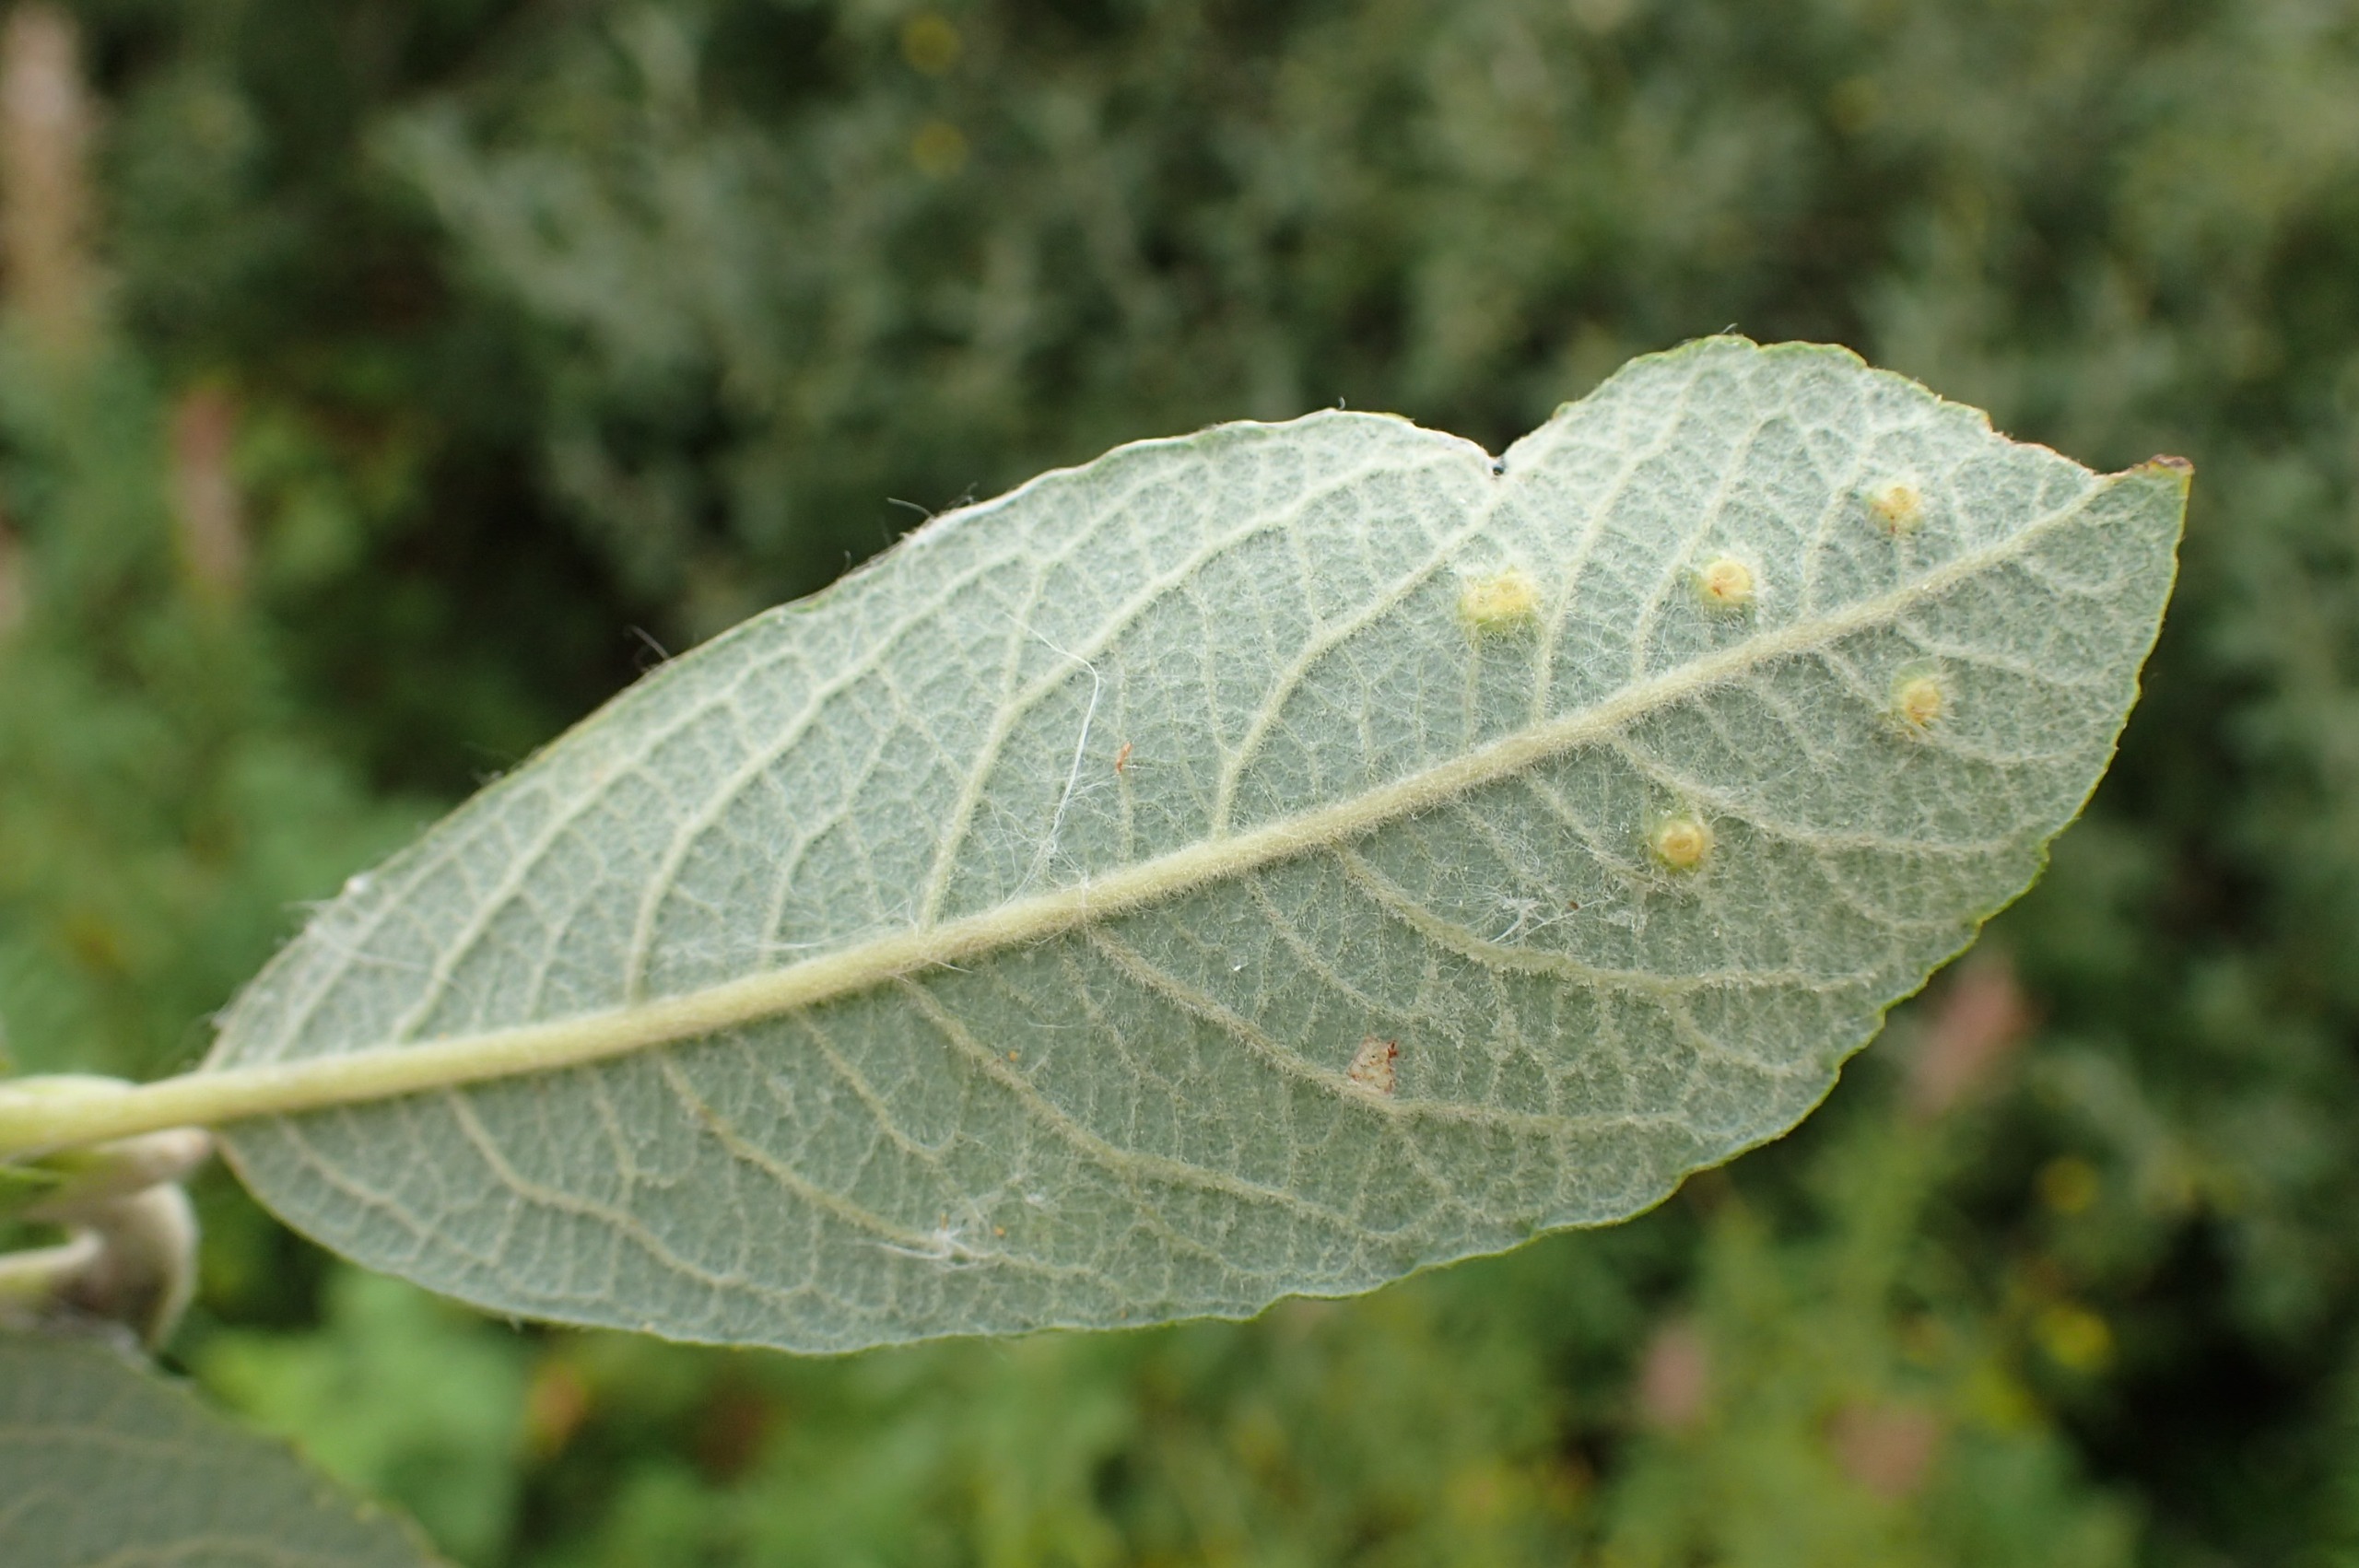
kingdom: Animalia
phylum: Arthropoda
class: Insecta
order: Diptera
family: Cecidomyiidae
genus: Iteomyia
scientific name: Iteomyia capreae
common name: Lille seljebladgalmyg
